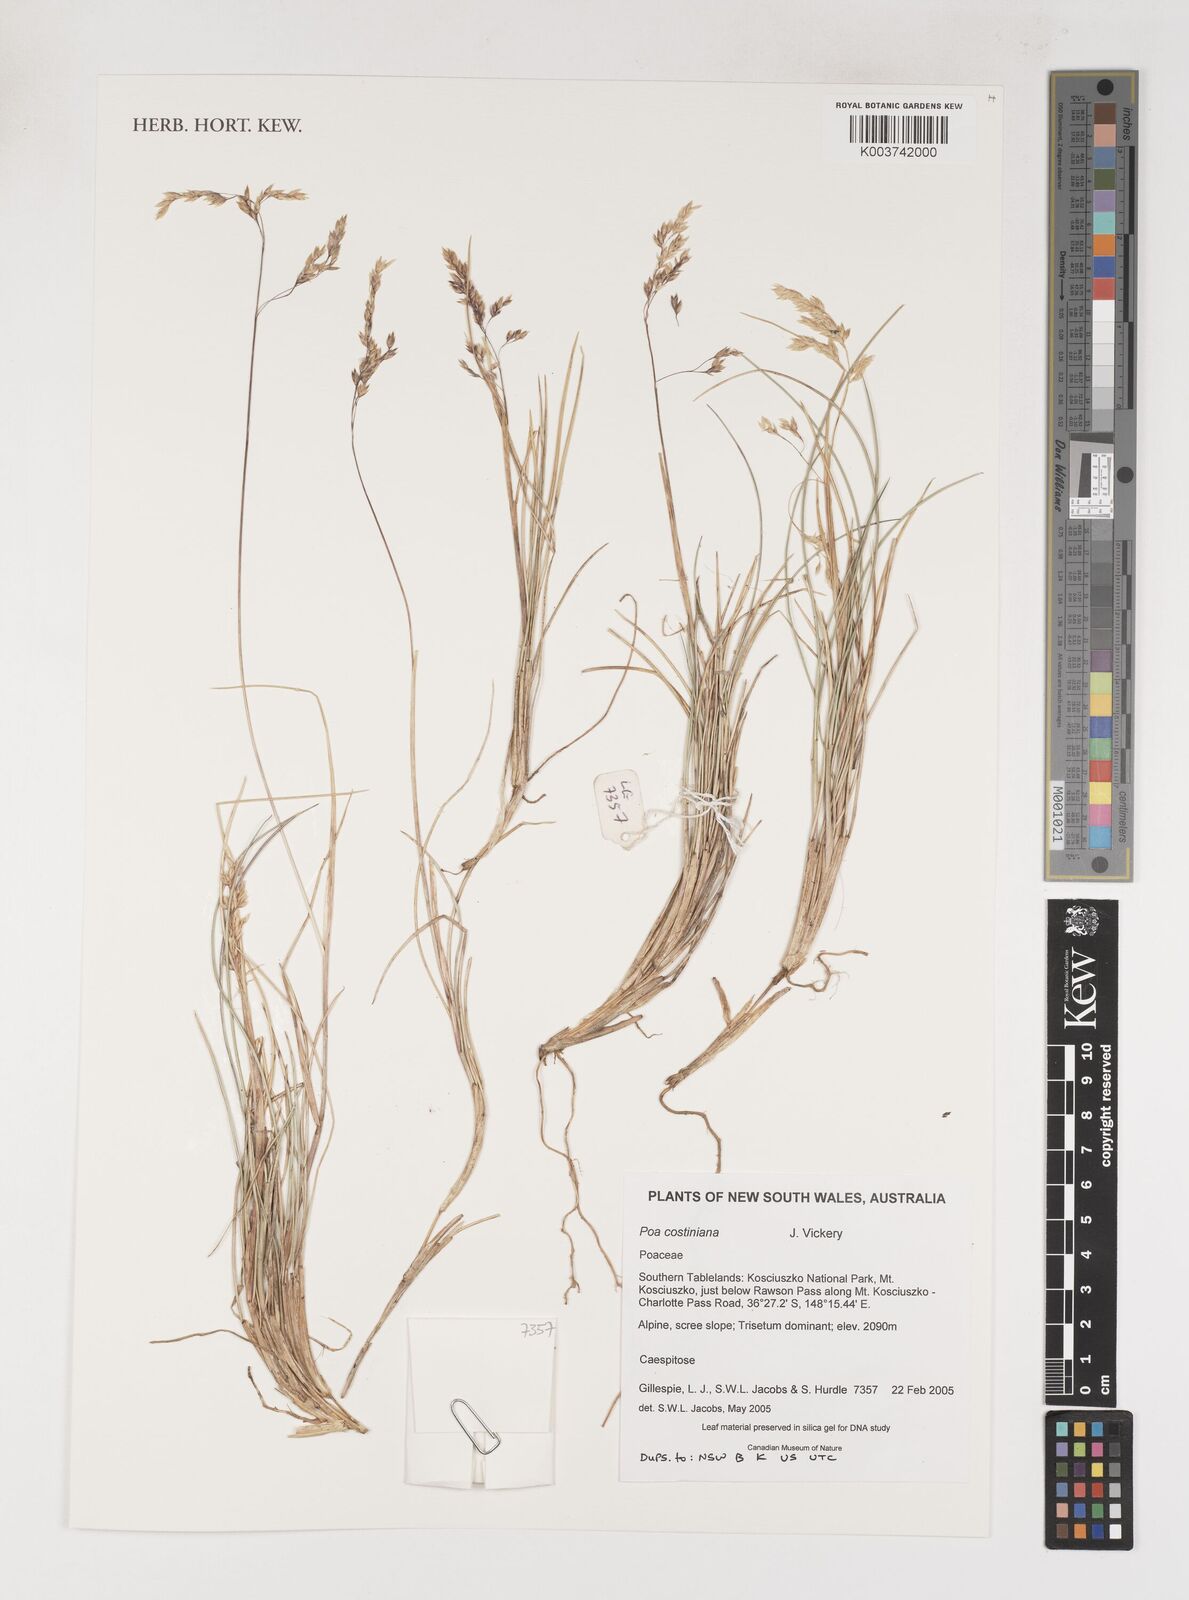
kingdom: Plantae
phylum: Tracheophyta
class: Liliopsida
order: Poales
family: Poaceae
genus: Poa
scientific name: Poa costiniana
